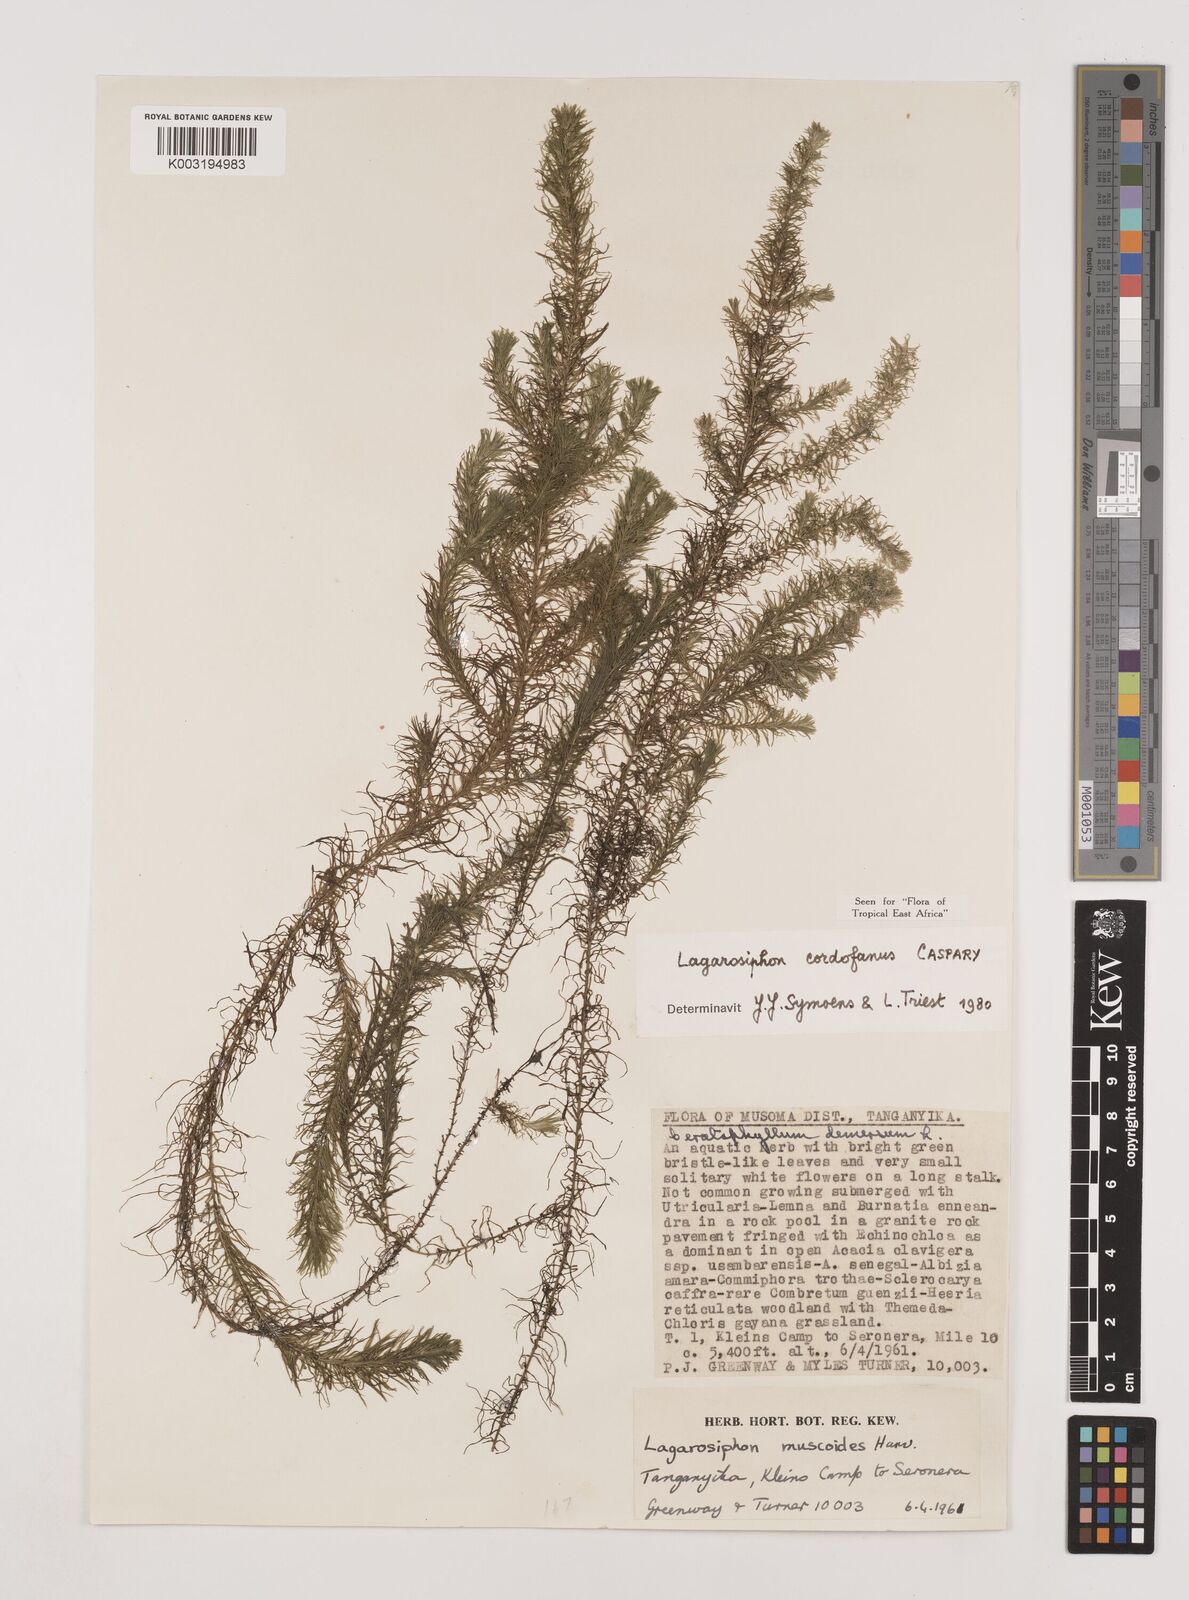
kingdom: Plantae
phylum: Tracheophyta
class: Liliopsida
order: Alismatales
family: Hydrocharitaceae
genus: Lagarosiphon
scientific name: Lagarosiphon cordofanus
